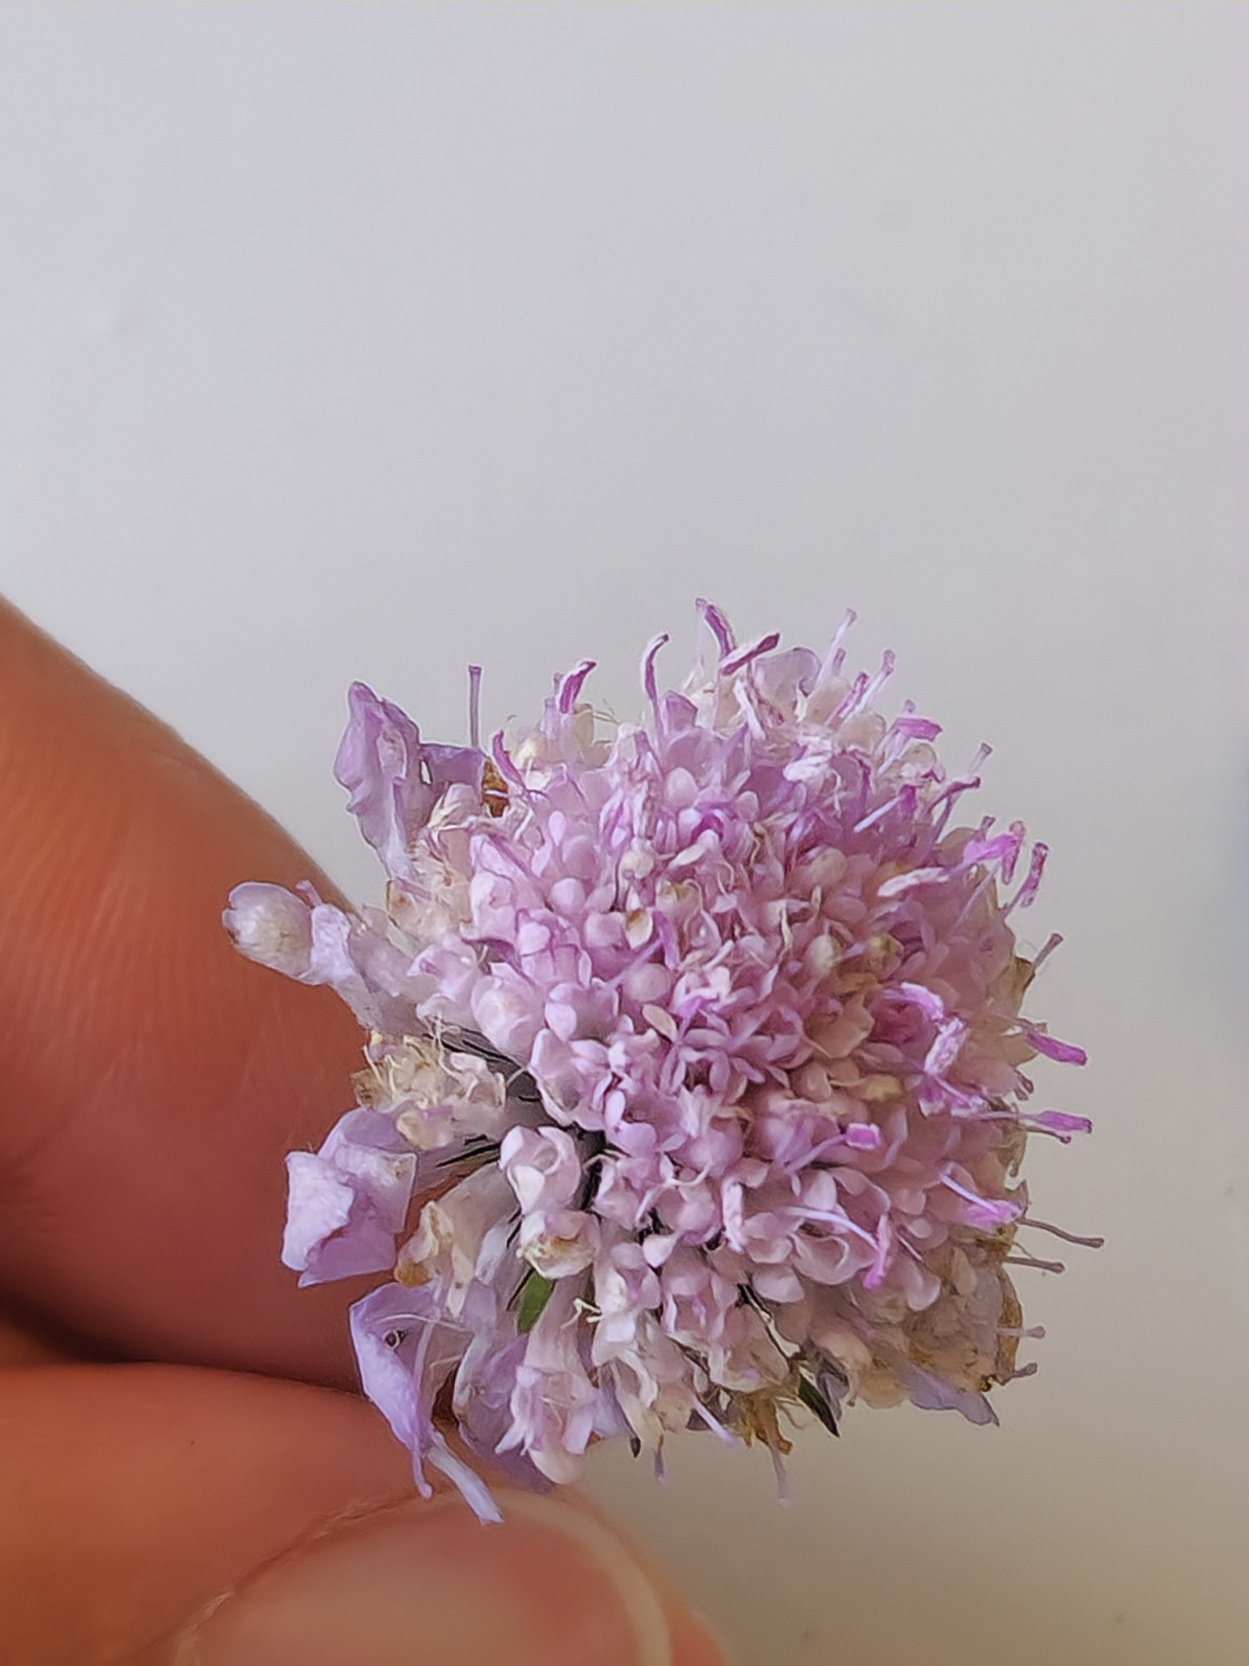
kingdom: Plantae
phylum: Tracheophyta
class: Magnoliopsida
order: Dipsacales
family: Caprifoliaceae
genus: Scabiosa
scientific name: Scabiosa columbaria
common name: Due-skabiose
